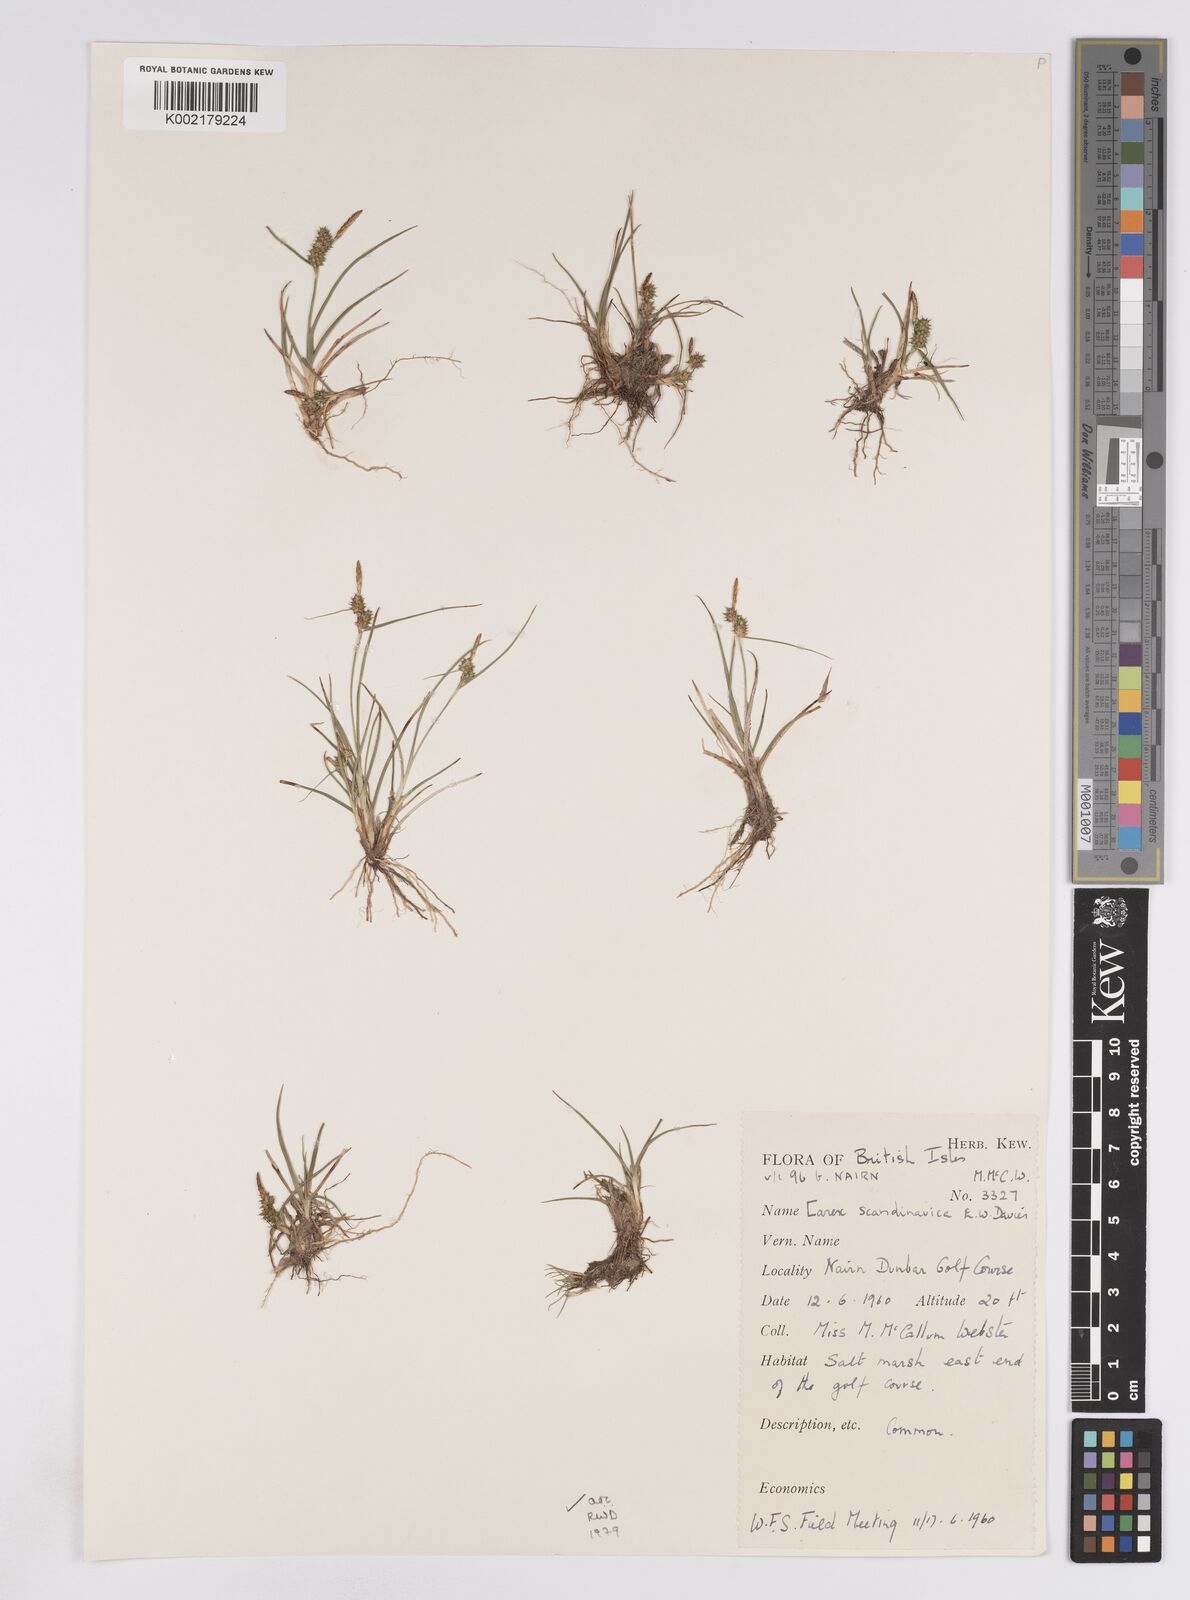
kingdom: Plantae
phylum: Tracheophyta
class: Liliopsida
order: Poales
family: Cyperaceae
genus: Carex
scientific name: Carex oederi
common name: Common & small-fruited yellow-sedge
